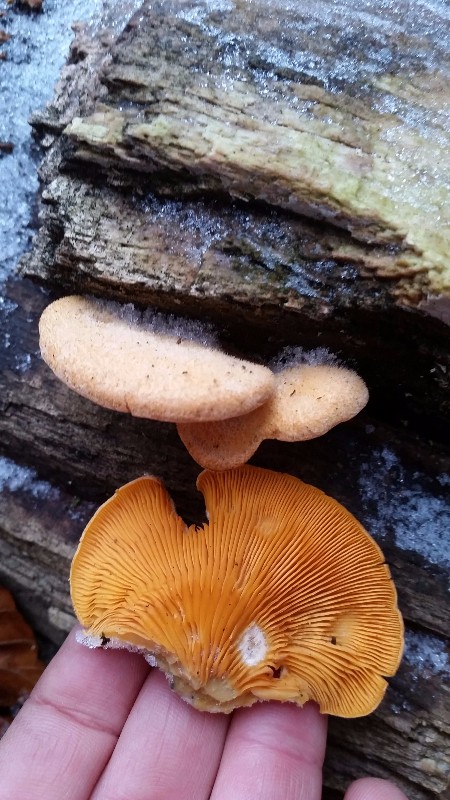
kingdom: Fungi
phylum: Basidiomycota
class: Agaricomycetes
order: Agaricales
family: Phyllotopsidaceae
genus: Phyllotopsis
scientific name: Phyllotopsis nidulans
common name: okkerblad
